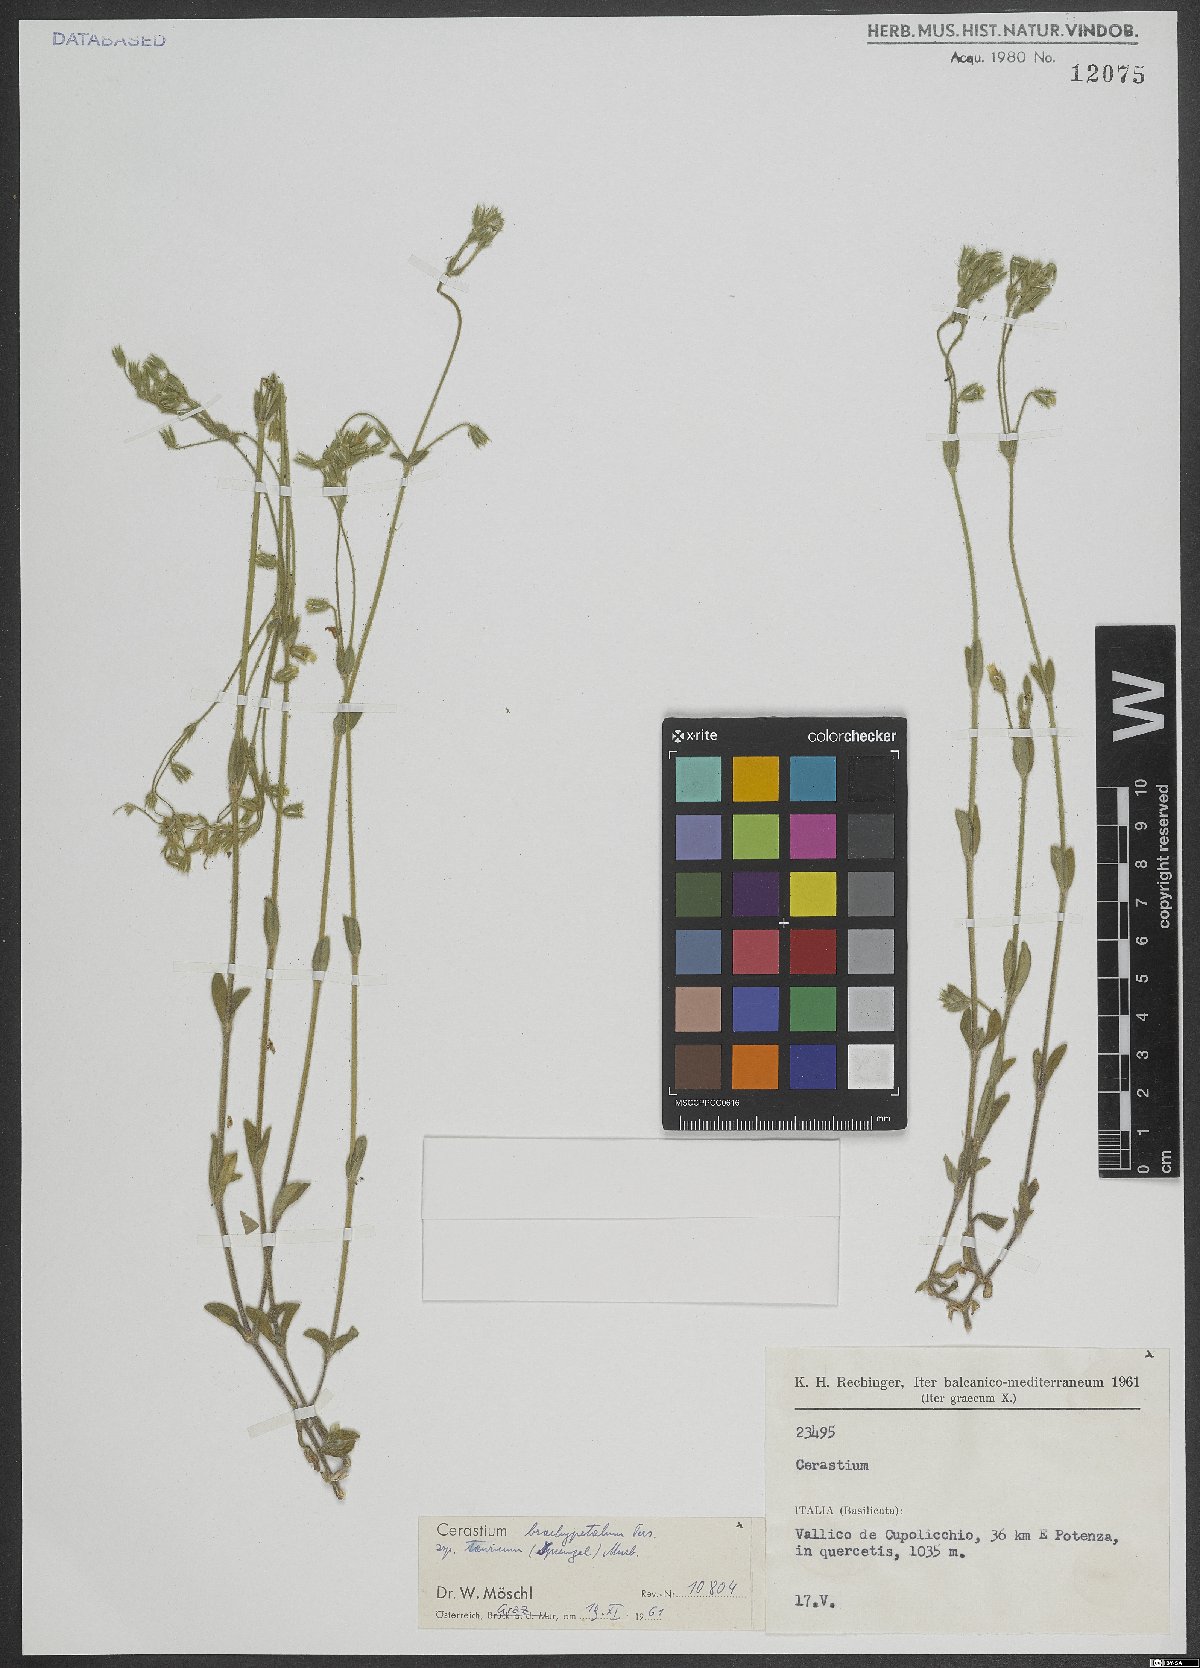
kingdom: Plantae
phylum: Tracheophyta
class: Magnoliopsida
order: Caryophyllales
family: Caryophyllaceae
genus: Cerastium
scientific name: Cerastium brachypetalum
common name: Grey mouse-ear
